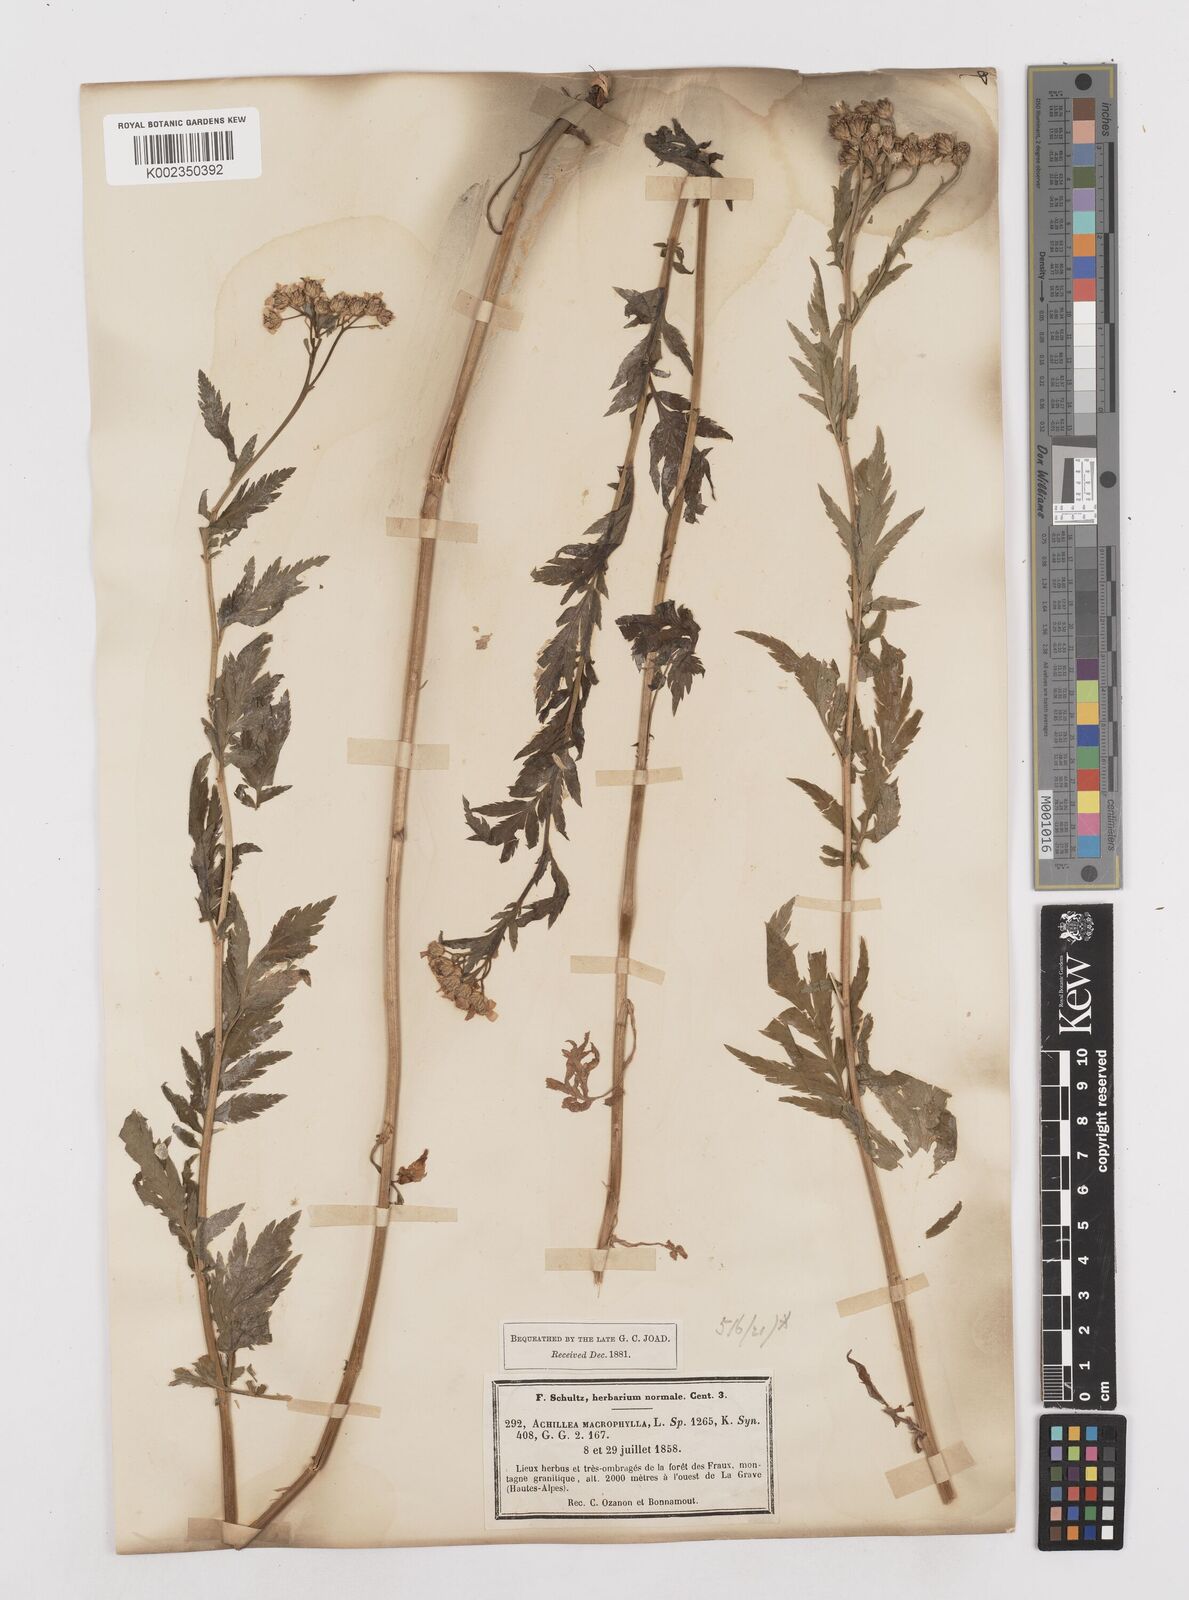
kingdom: Plantae
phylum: Tracheophyta
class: Magnoliopsida
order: Asterales
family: Asteraceae
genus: Achillea
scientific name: Achillea macrophylla
